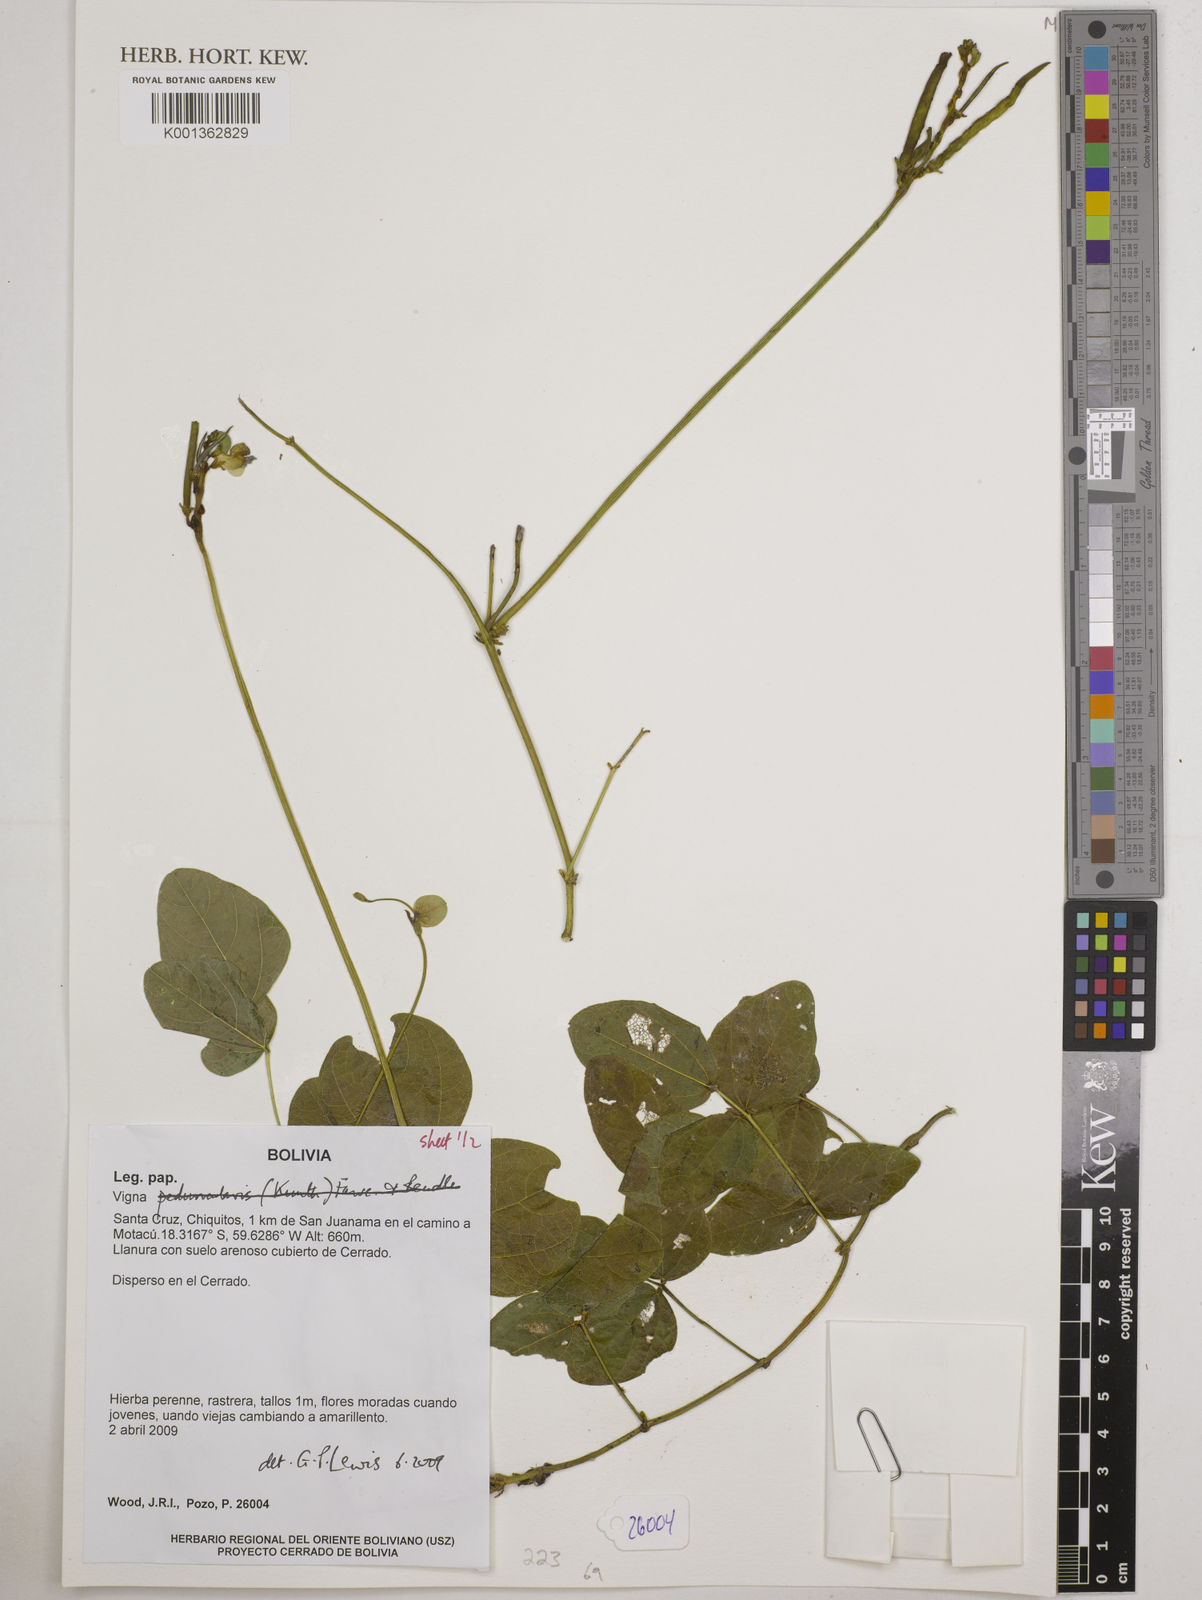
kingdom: Plantae
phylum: Tracheophyta
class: Magnoliopsida
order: Fabales
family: Fabaceae
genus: Vigna
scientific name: Vigna
